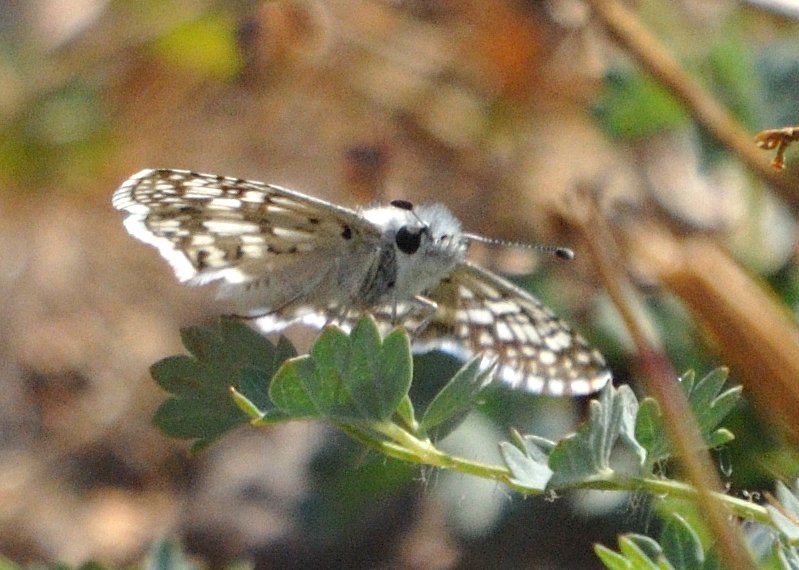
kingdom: Animalia
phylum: Arthropoda
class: Insecta
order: Lepidoptera
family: Hesperiidae
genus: Pyrgus
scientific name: Pyrgus communis
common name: Common Checkered-Skipper
